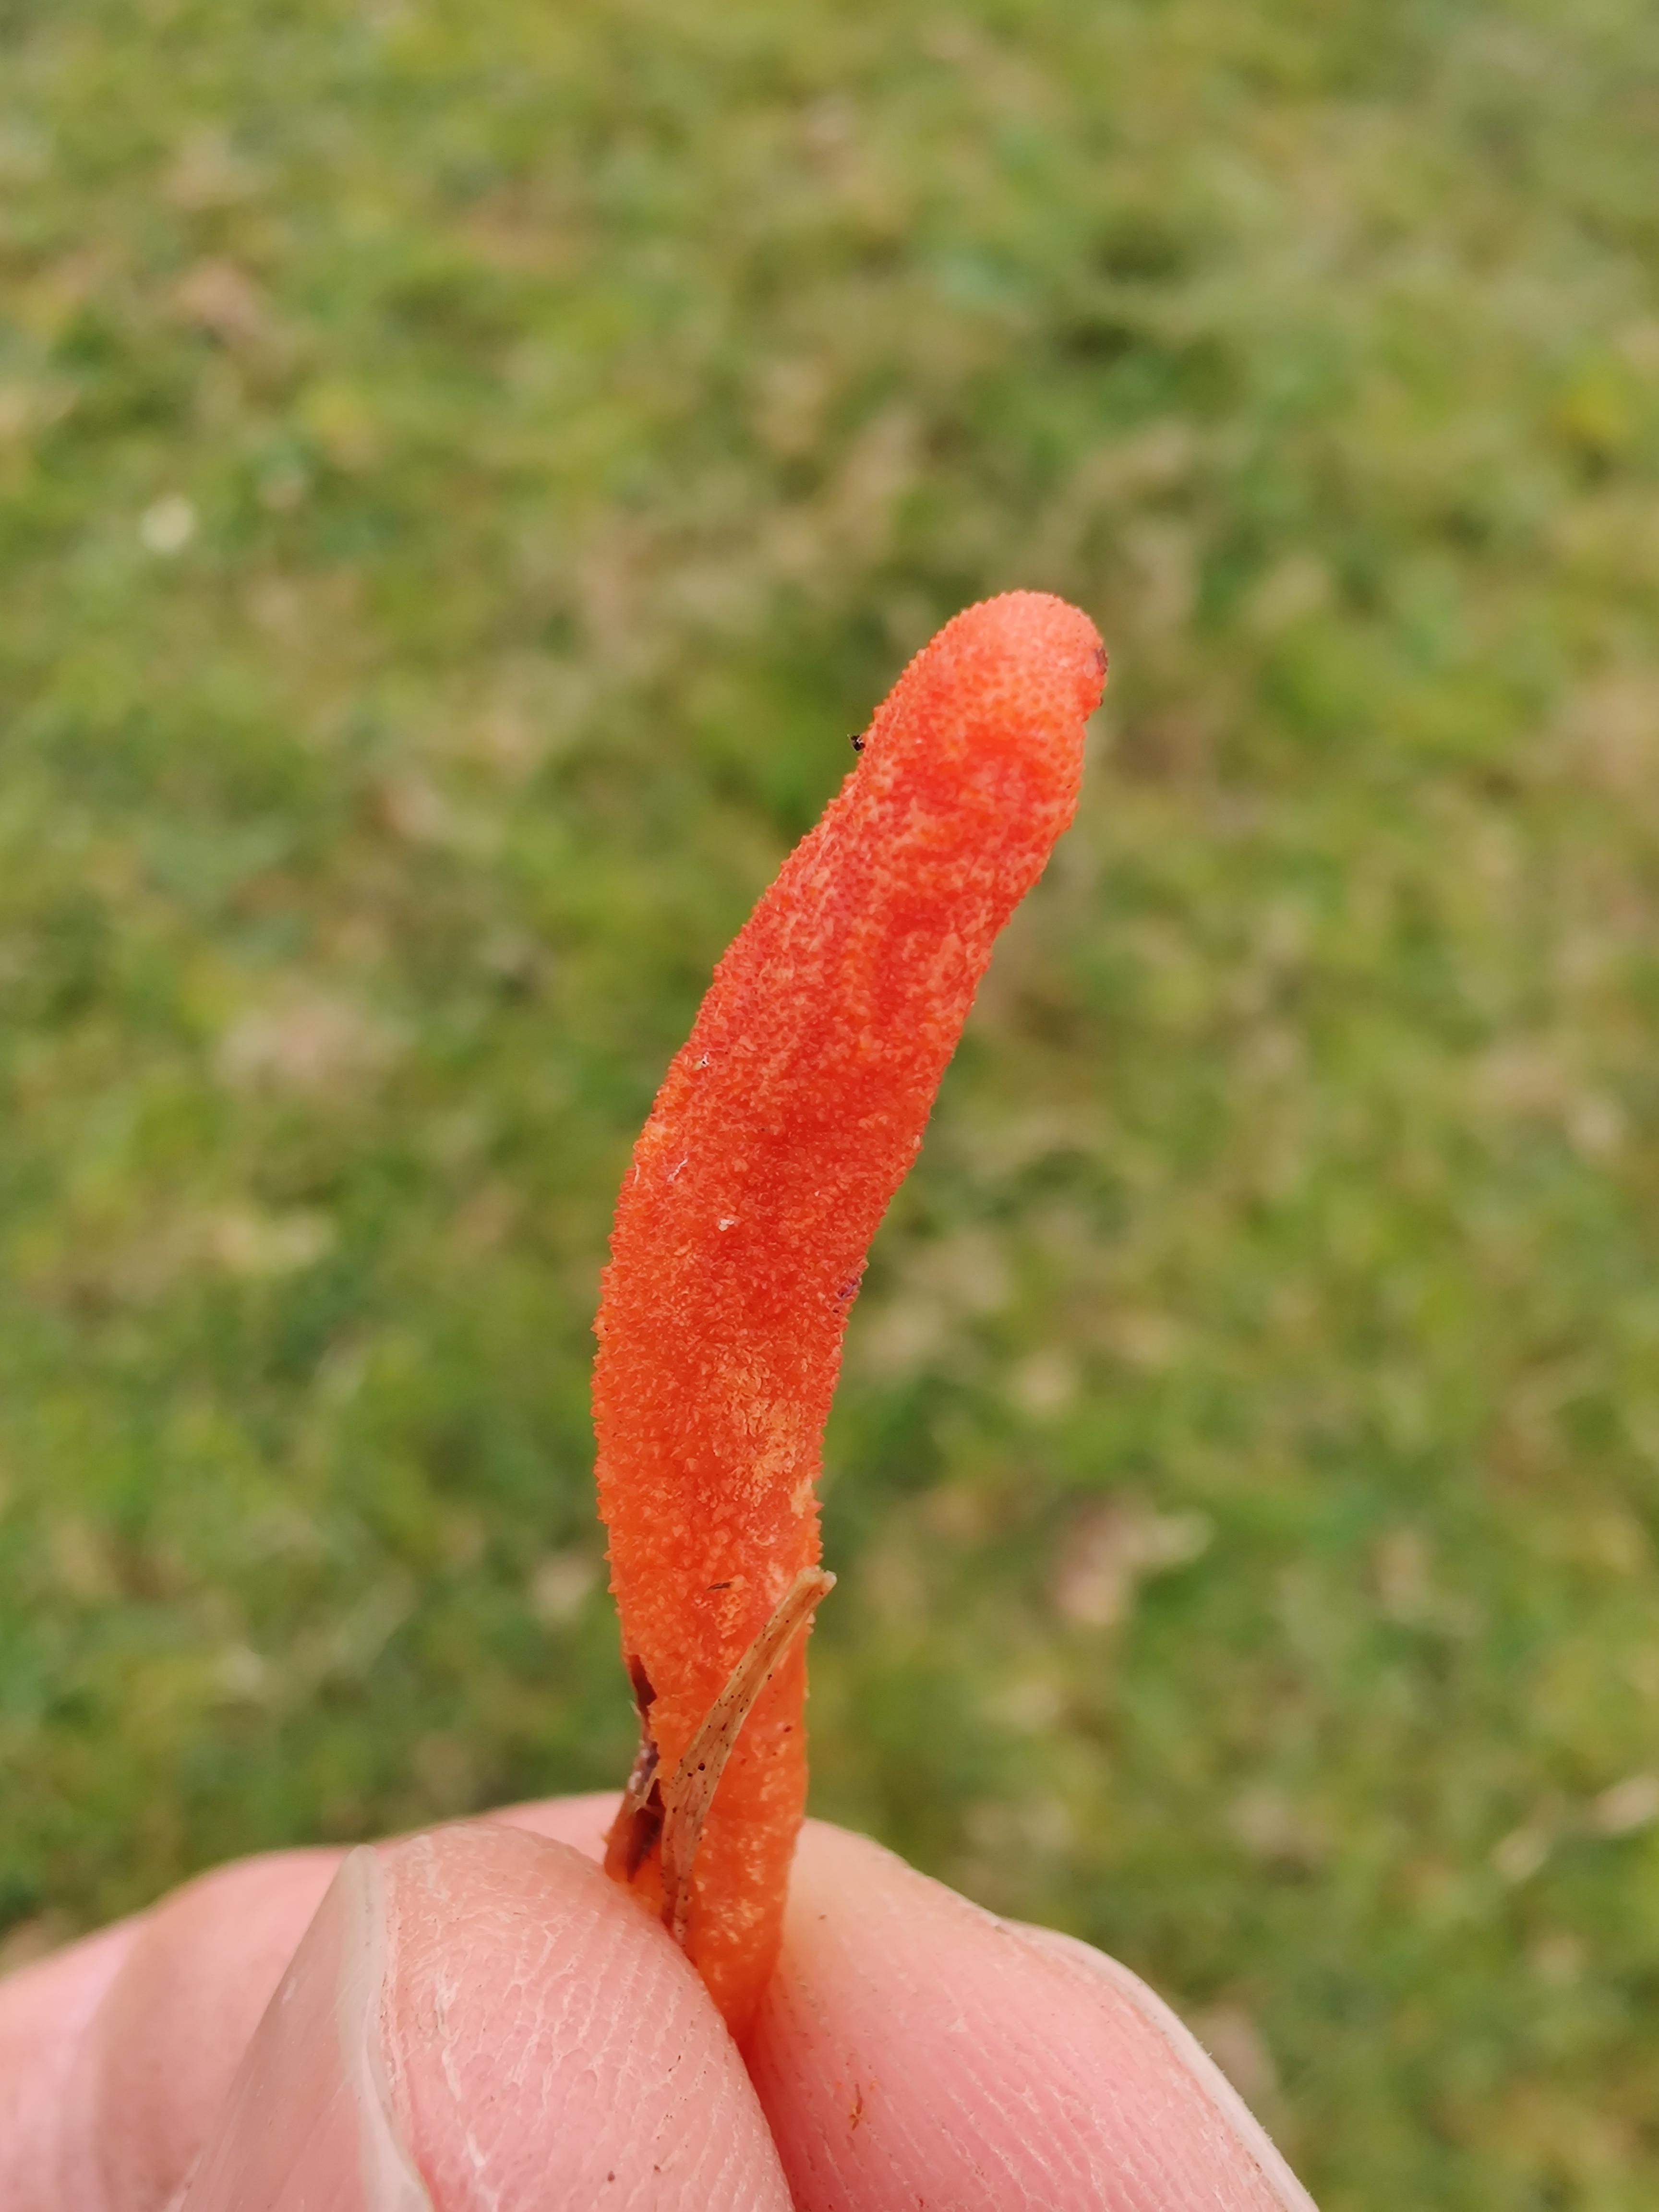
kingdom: Fungi
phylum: Ascomycota
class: Sordariomycetes
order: Hypocreales
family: Cordycipitaceae
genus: Cordyceps
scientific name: Cordyceps militaris
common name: puppe-snyltekølle
